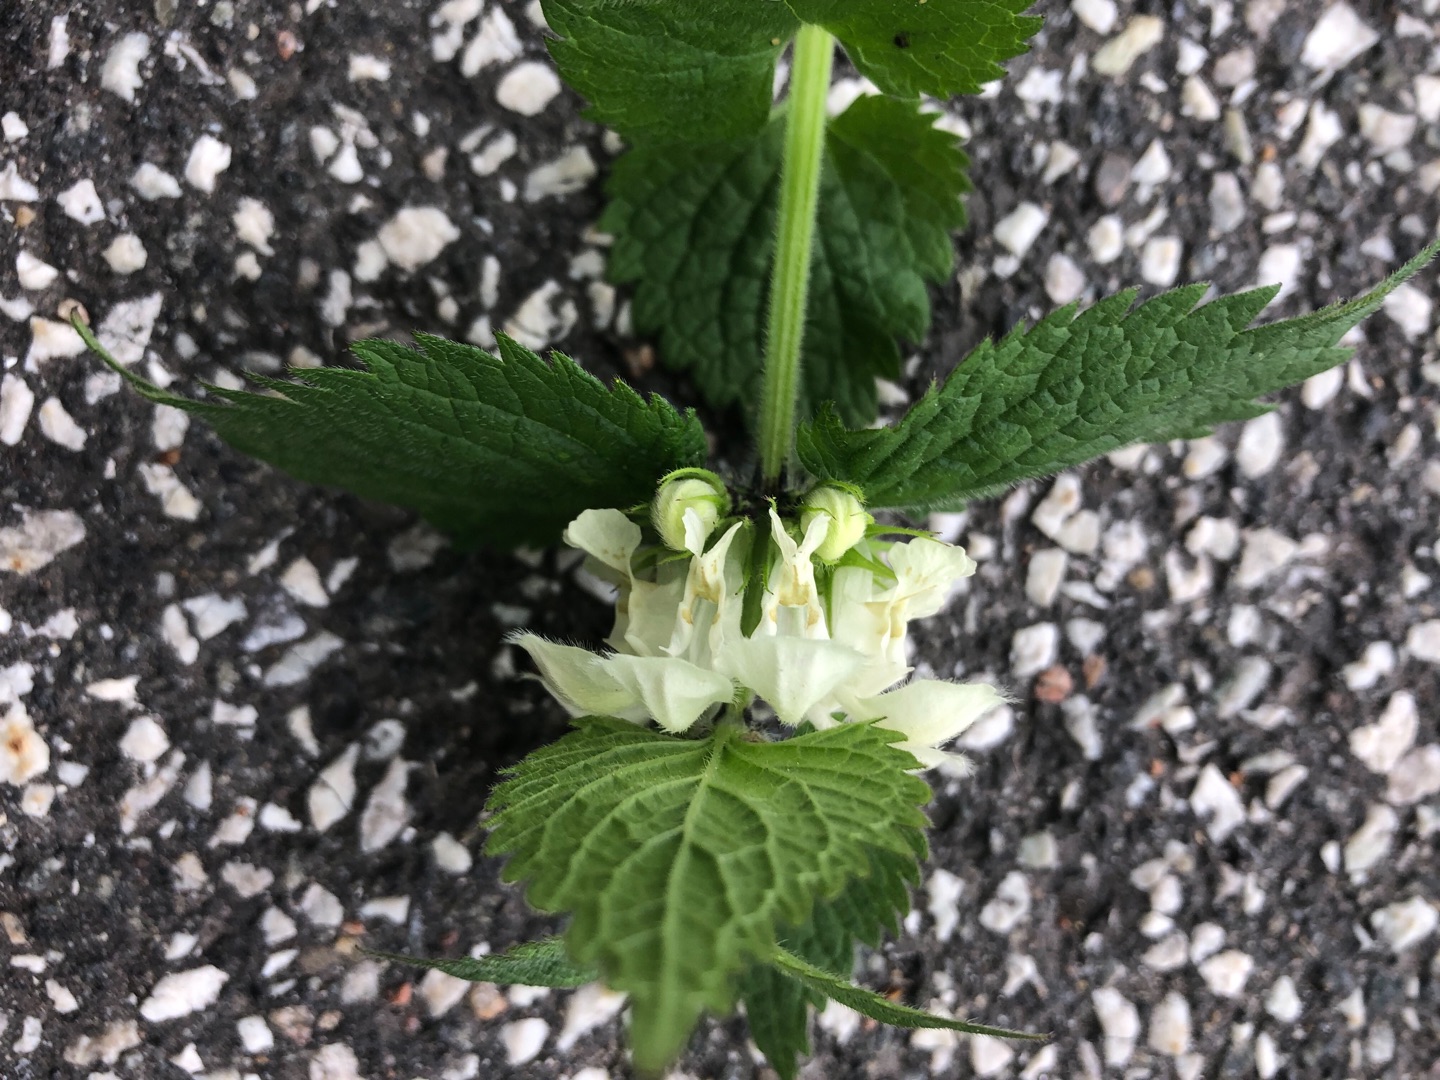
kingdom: Plantae
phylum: Tracheophyta
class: Magnoliopsida
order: Lamiales
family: Lamiaceae
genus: Lamium
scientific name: Lamium album
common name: Døvnælde
